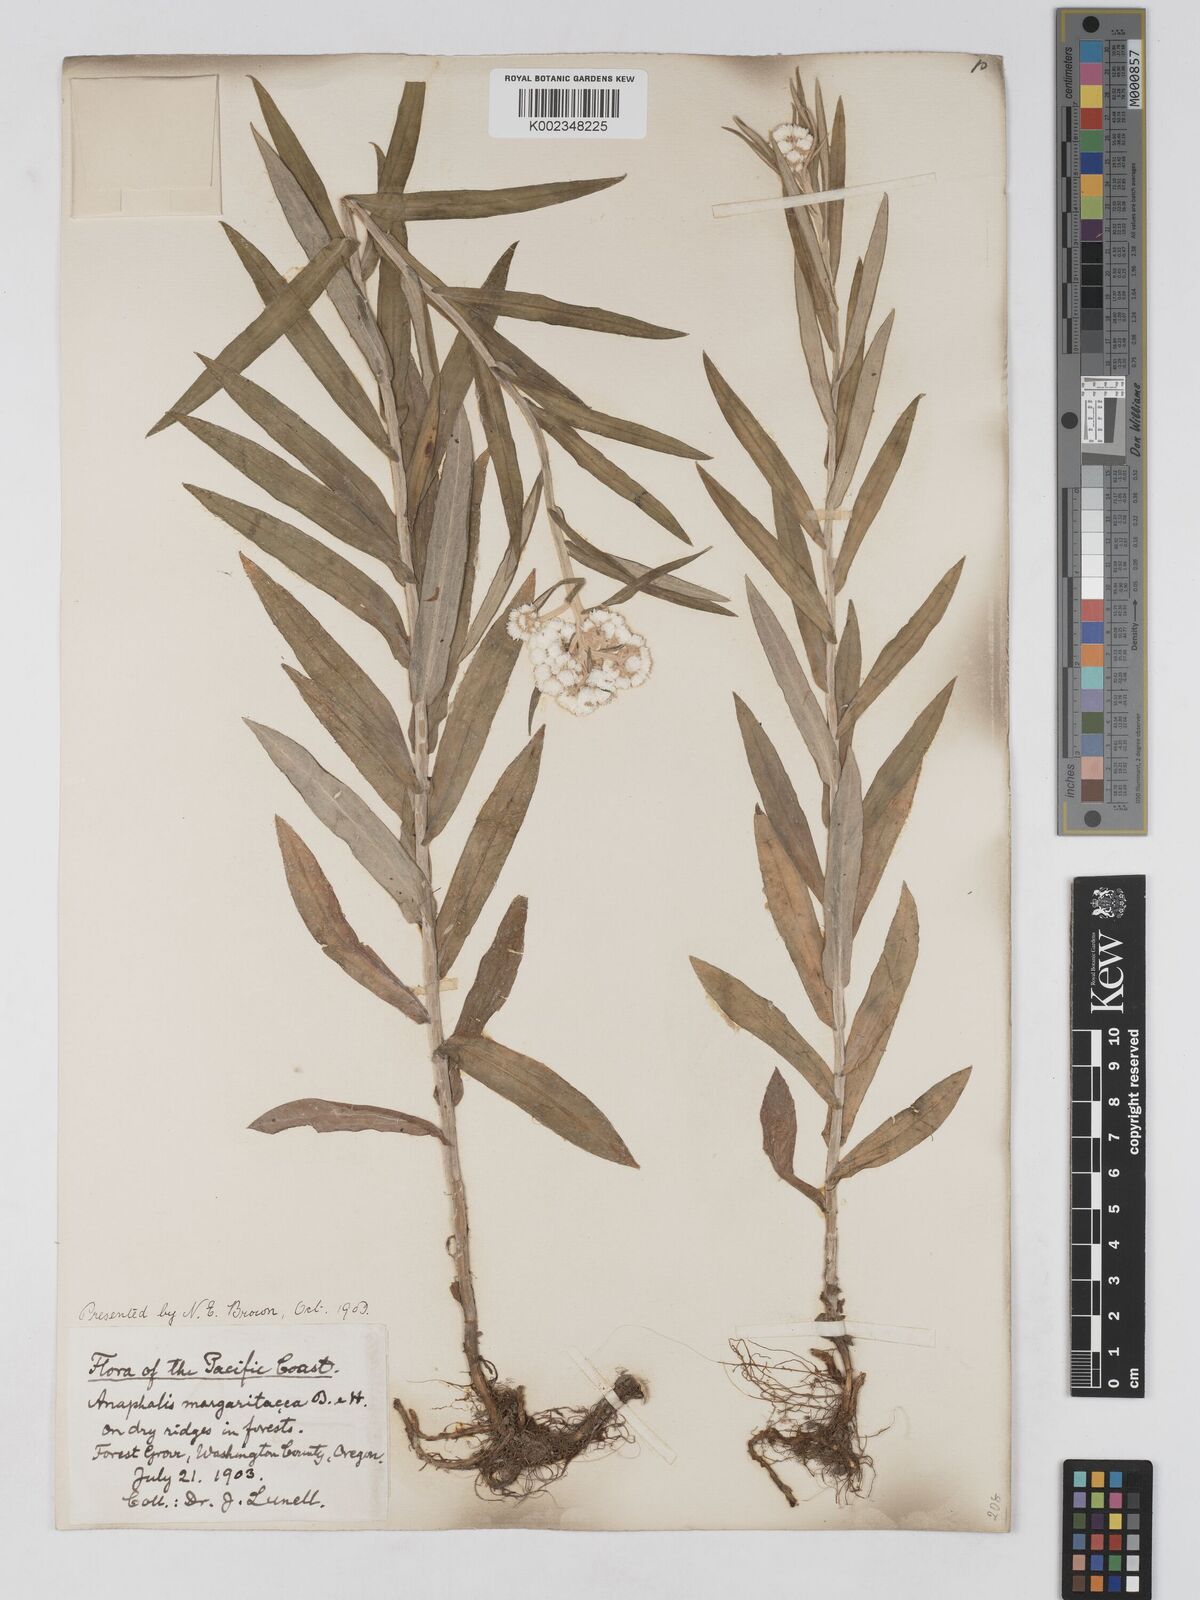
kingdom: Plantae
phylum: Tracheophyta
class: Magnoliopsida
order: Asterales
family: Asteraceae
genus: Anaphalis
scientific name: Anaphalis margaritacea
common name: Pearly everlasting
